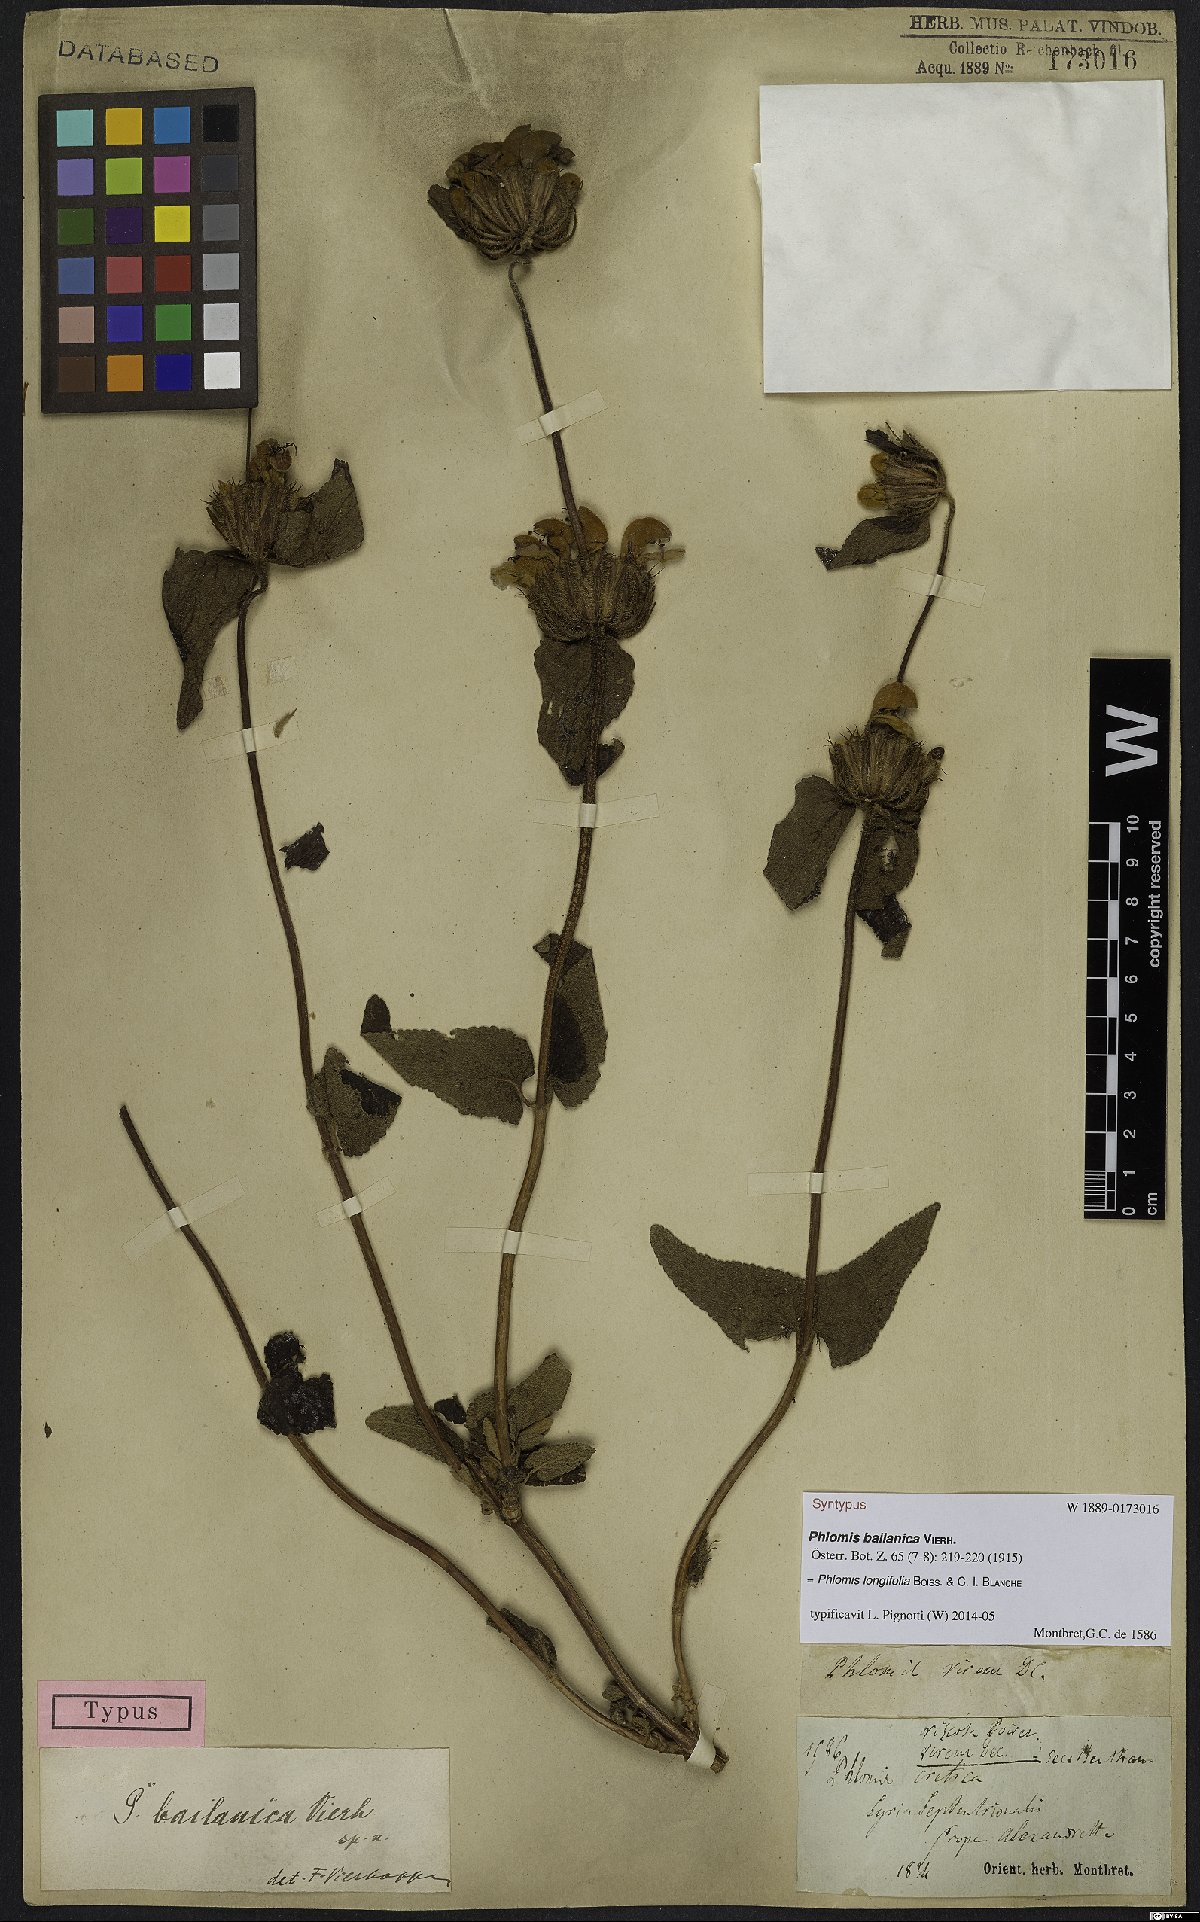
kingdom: Plantae
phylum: Tracheophyta
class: Magnoliopsida
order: Lamiales
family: Lamiaceae
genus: Phlomis
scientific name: Phlomis longifolia
